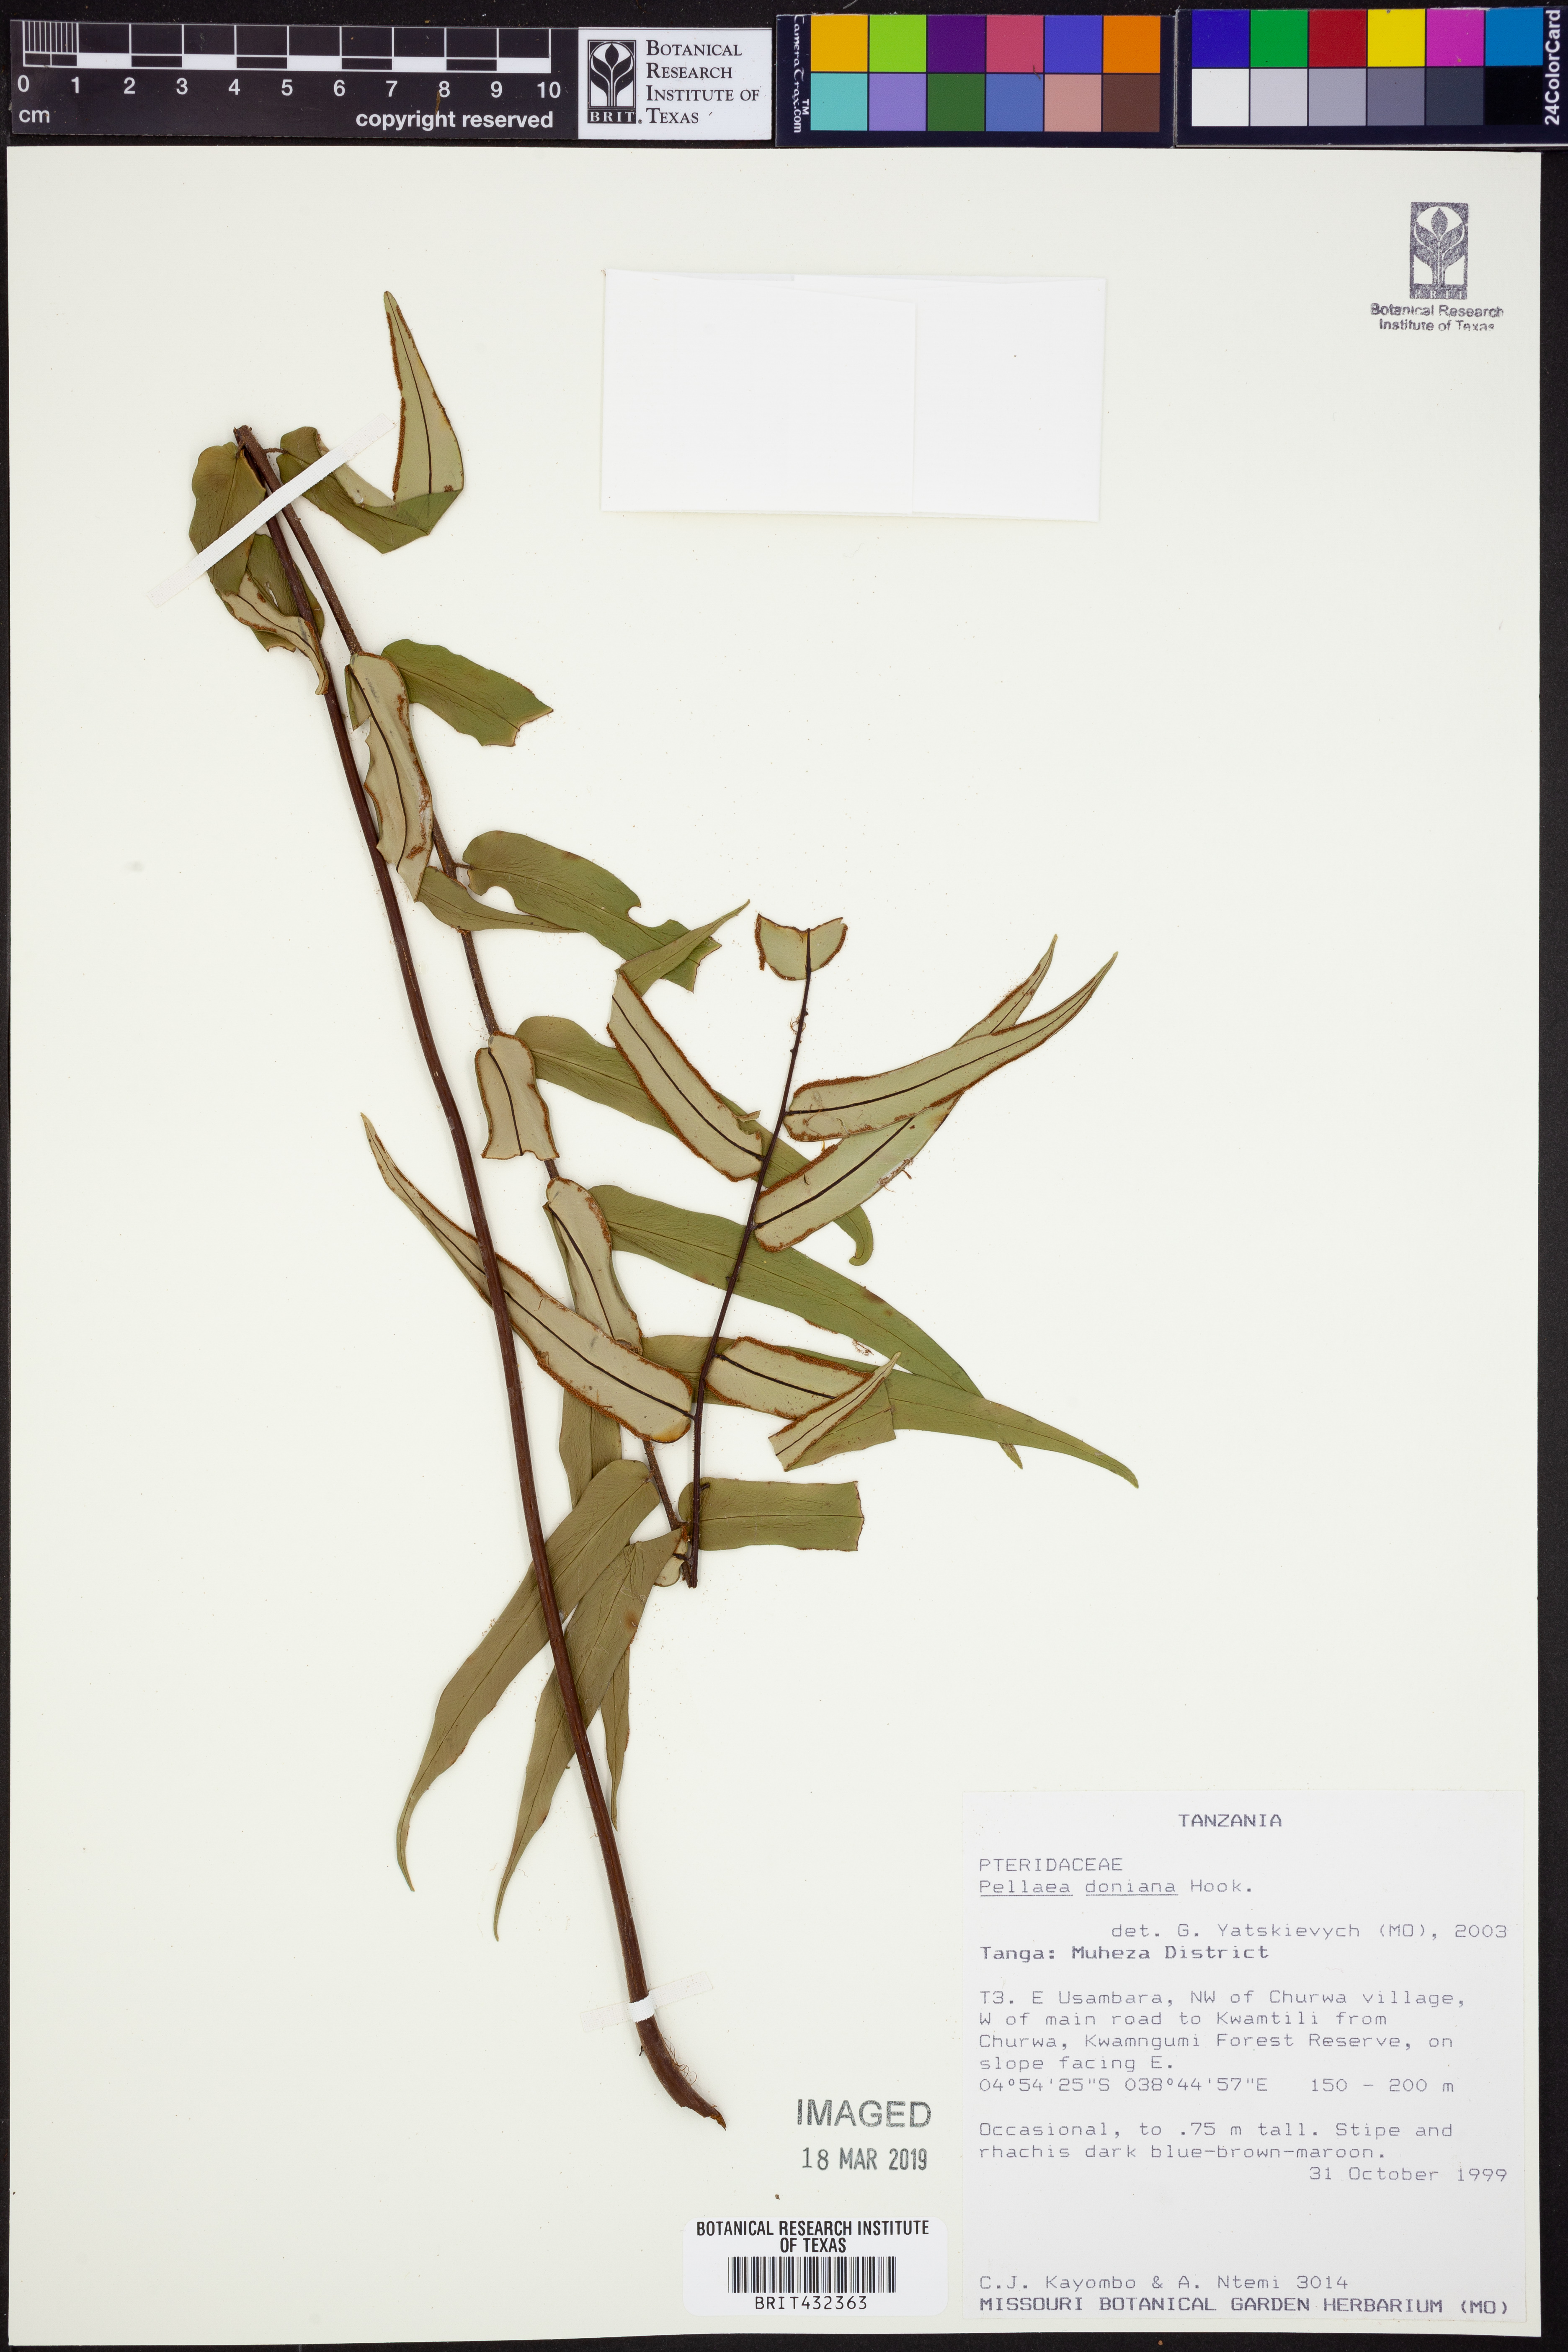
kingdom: Plantae
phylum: Tracheophyta
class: Polypodiopsida
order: Polypodiales
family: Pteridaceae
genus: Pellaea
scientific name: Pellaea doniana
